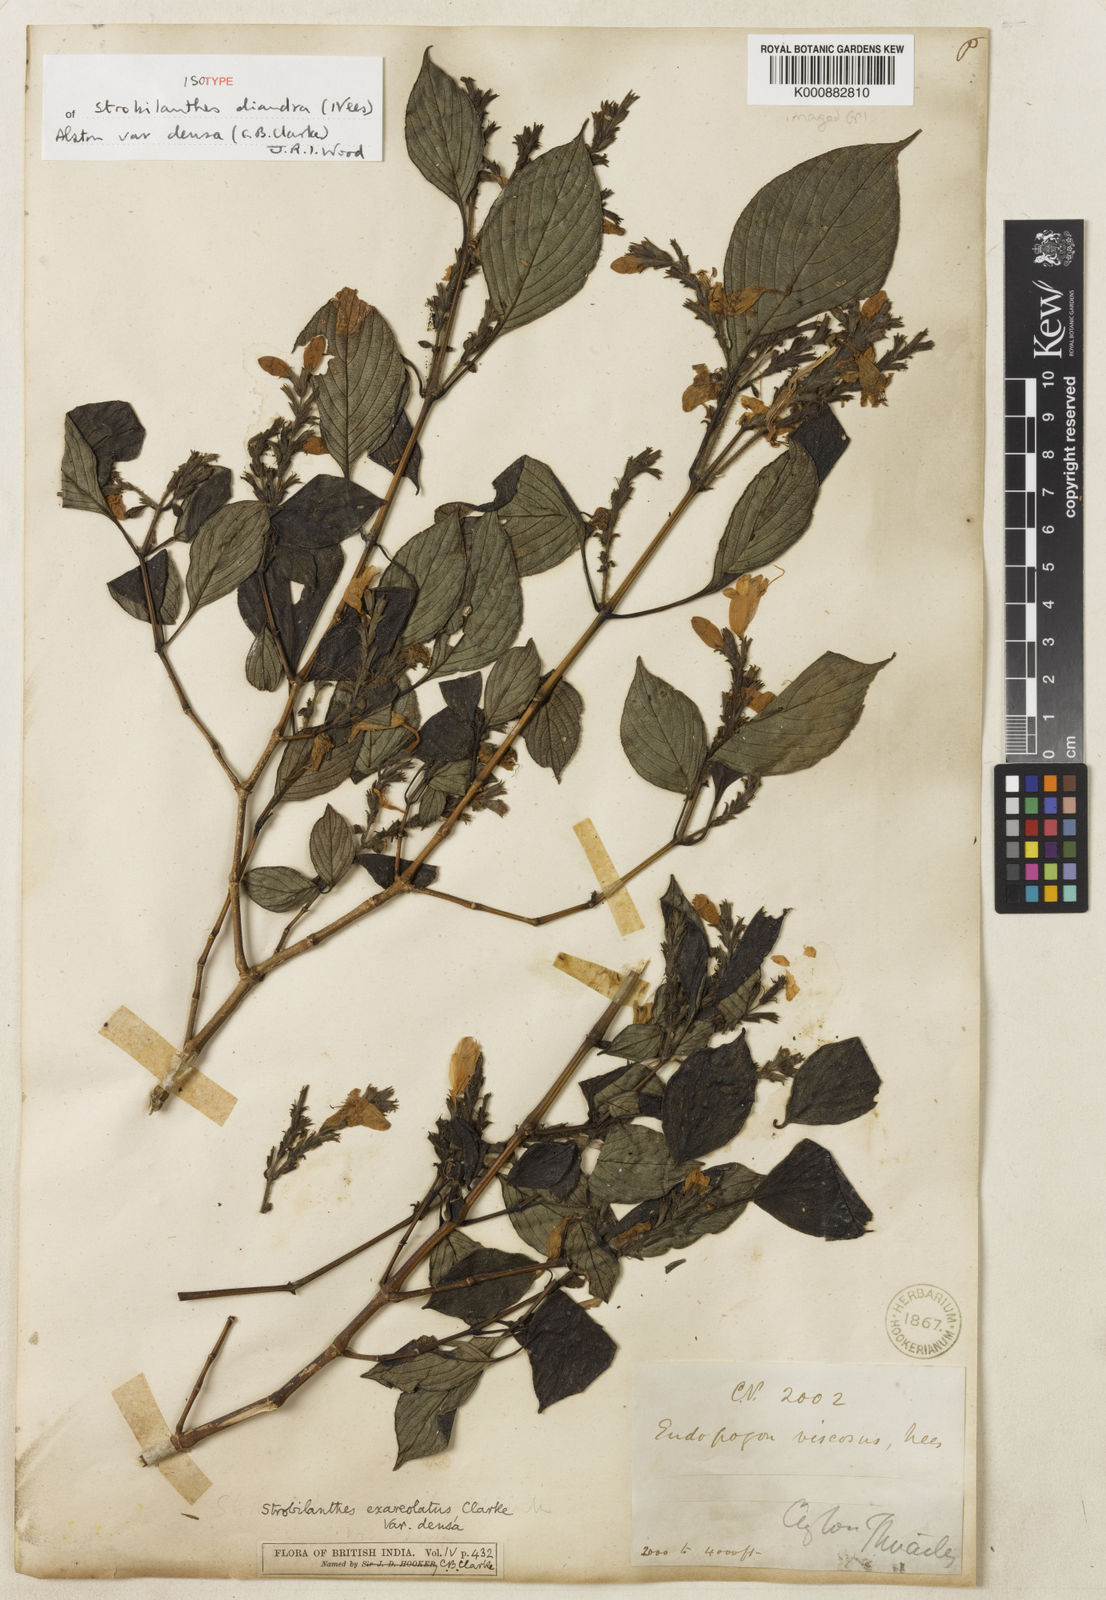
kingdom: Plantae
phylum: Tracheophyta
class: Magnoliopsida
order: Lamiales
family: Acanthaceae
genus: Strobilanthes
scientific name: Strobilanthes diandra
